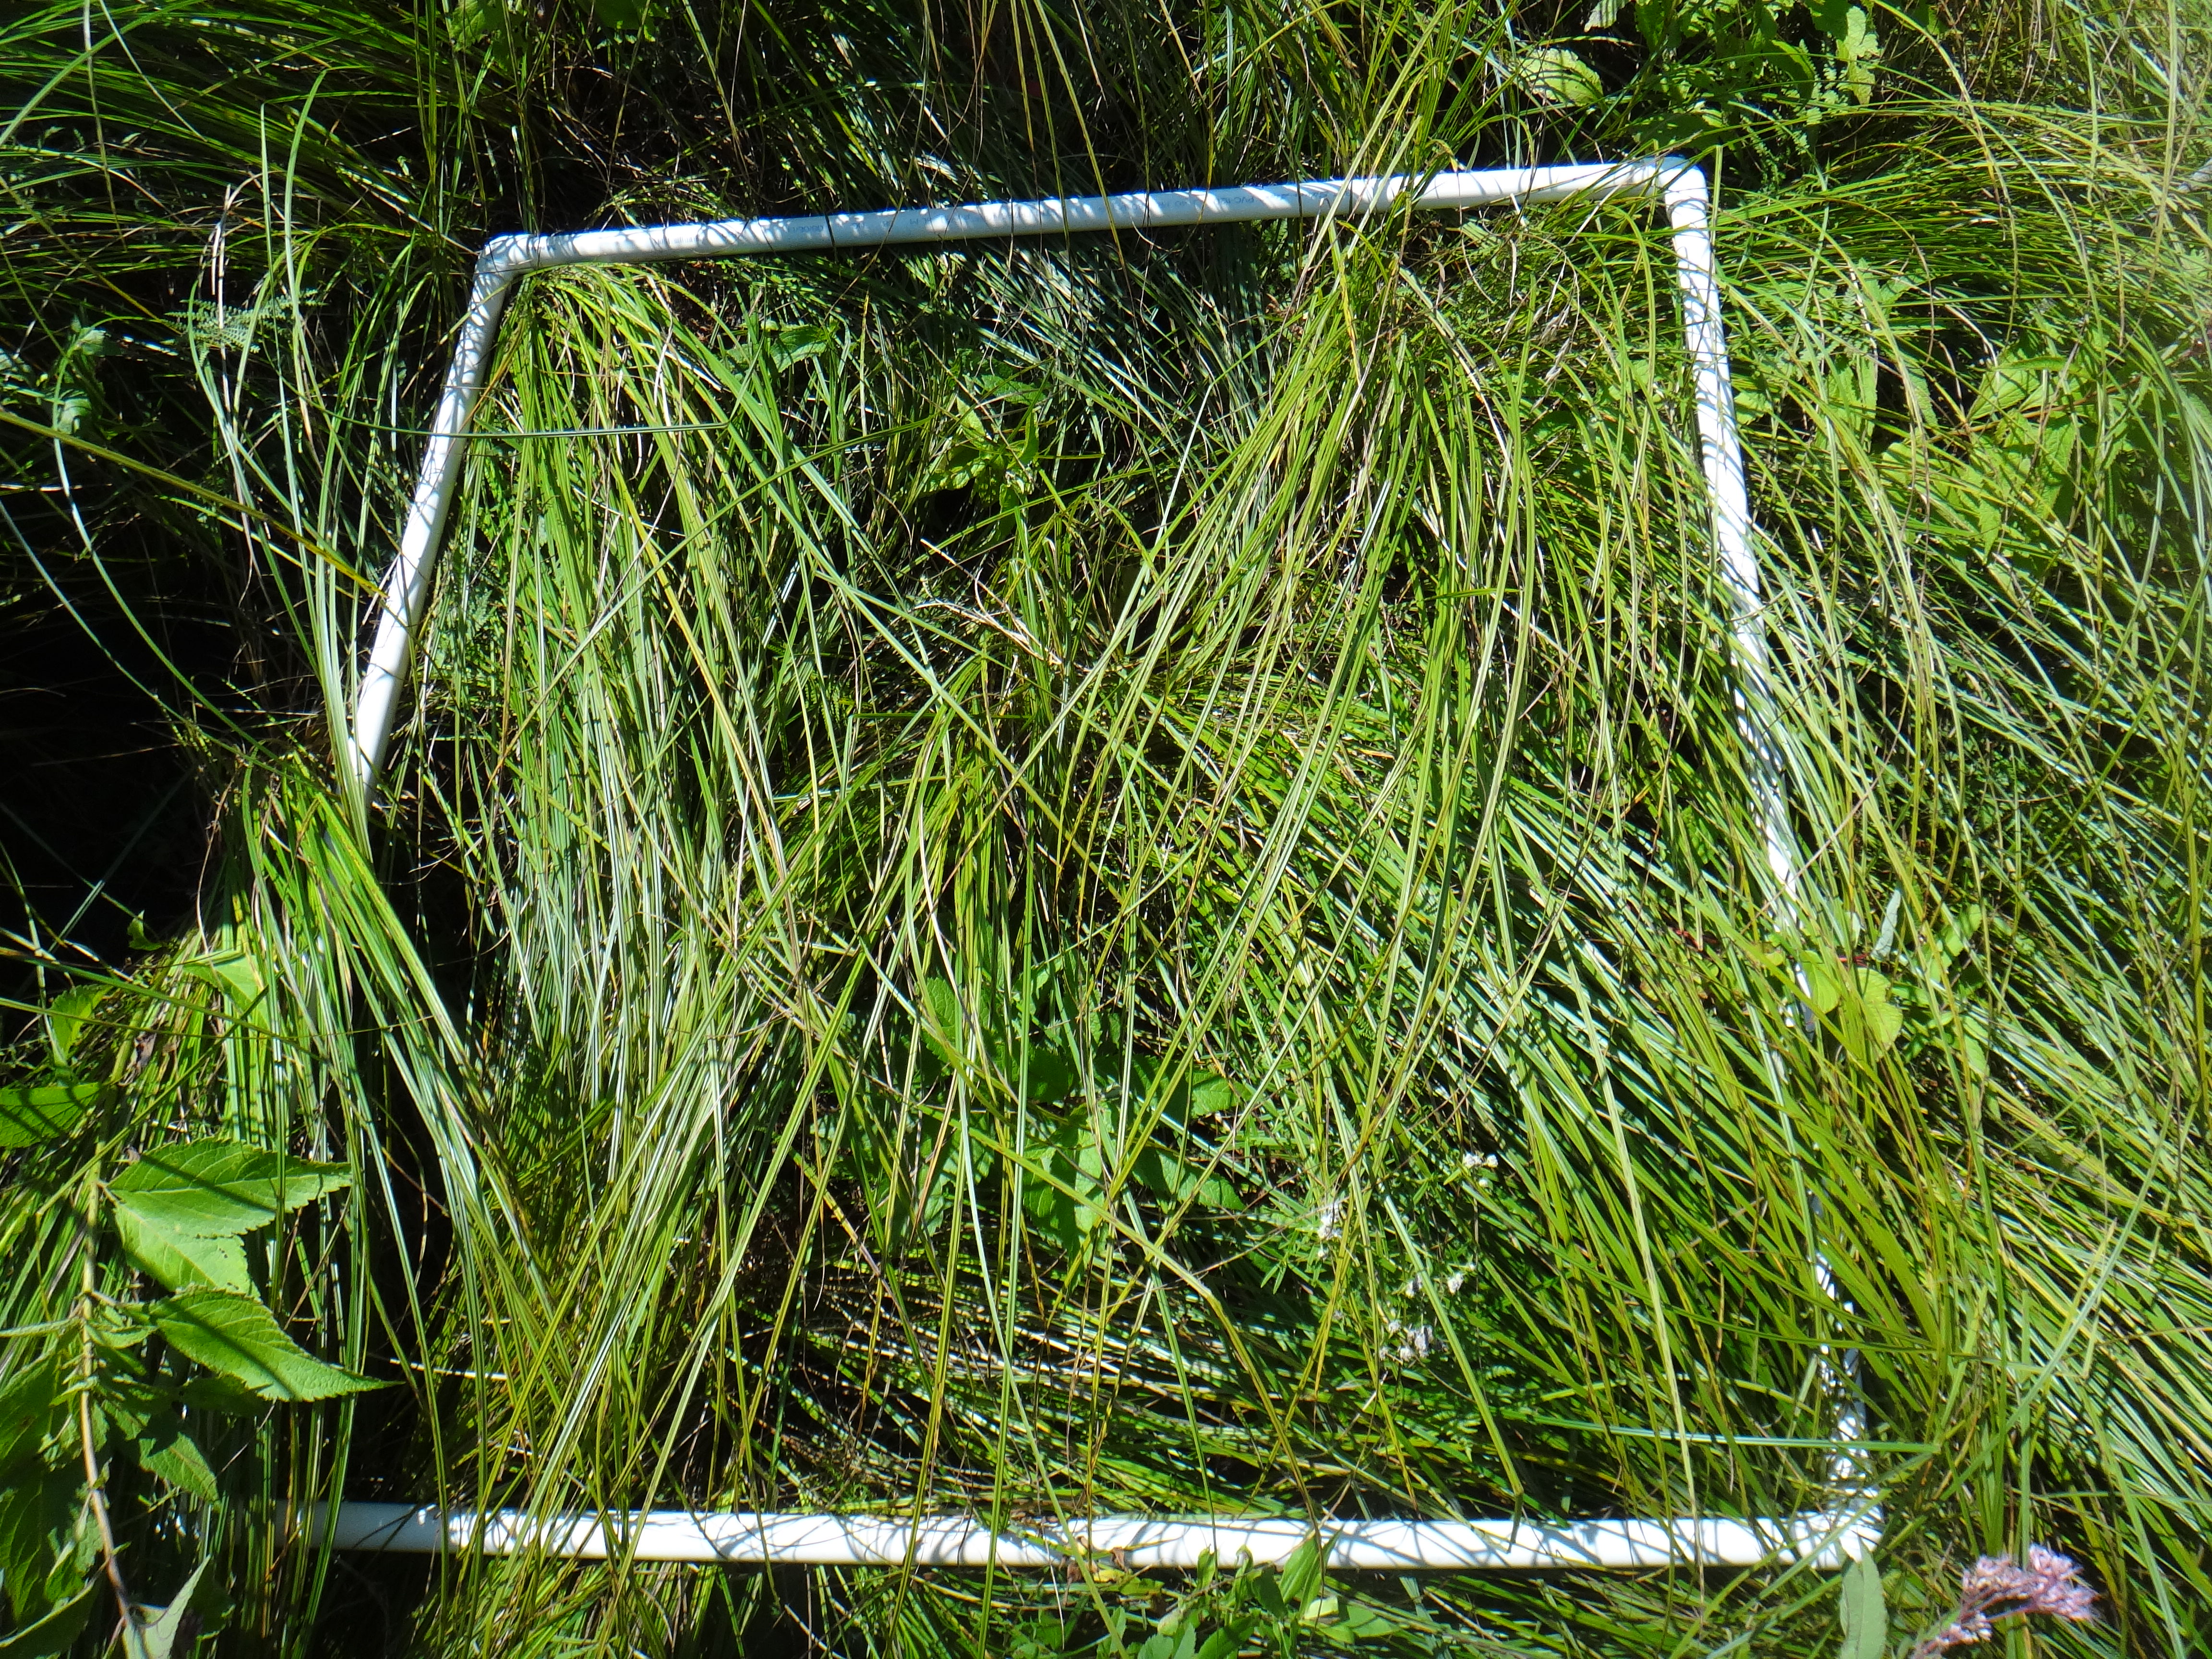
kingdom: Plantae
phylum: Tracheophyta
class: Magnoliopsida
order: Sapindales
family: Sapindaceae
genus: Acer
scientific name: Acer rubrum
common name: Red maple
